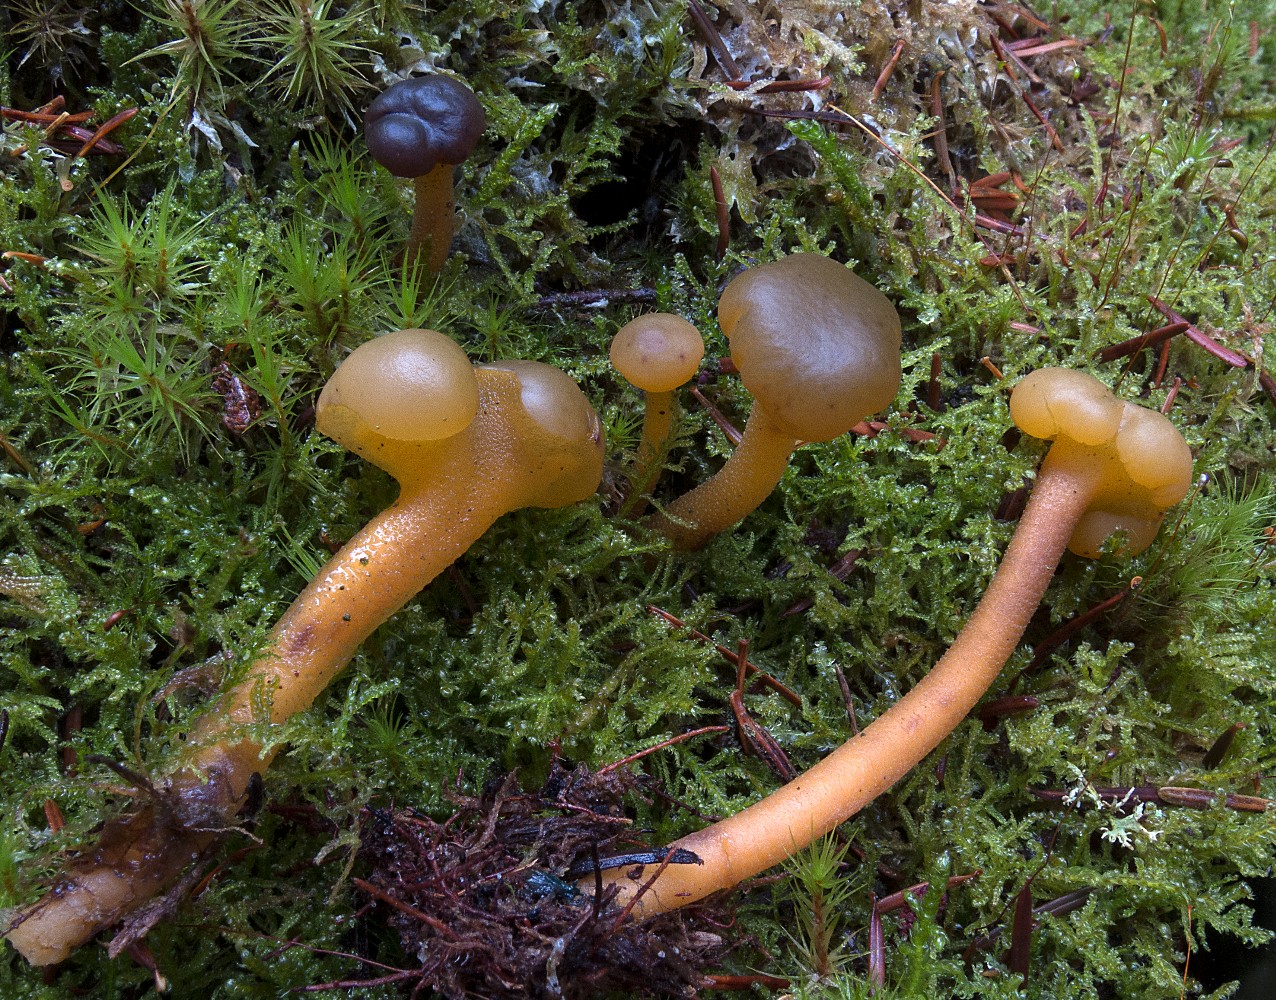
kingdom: Fungi
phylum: Ascomycota
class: Leotiomycetes
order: Leotiales
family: Leotiaceae
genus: Leotia
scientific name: Leotia lubrica
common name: ravsvamp
